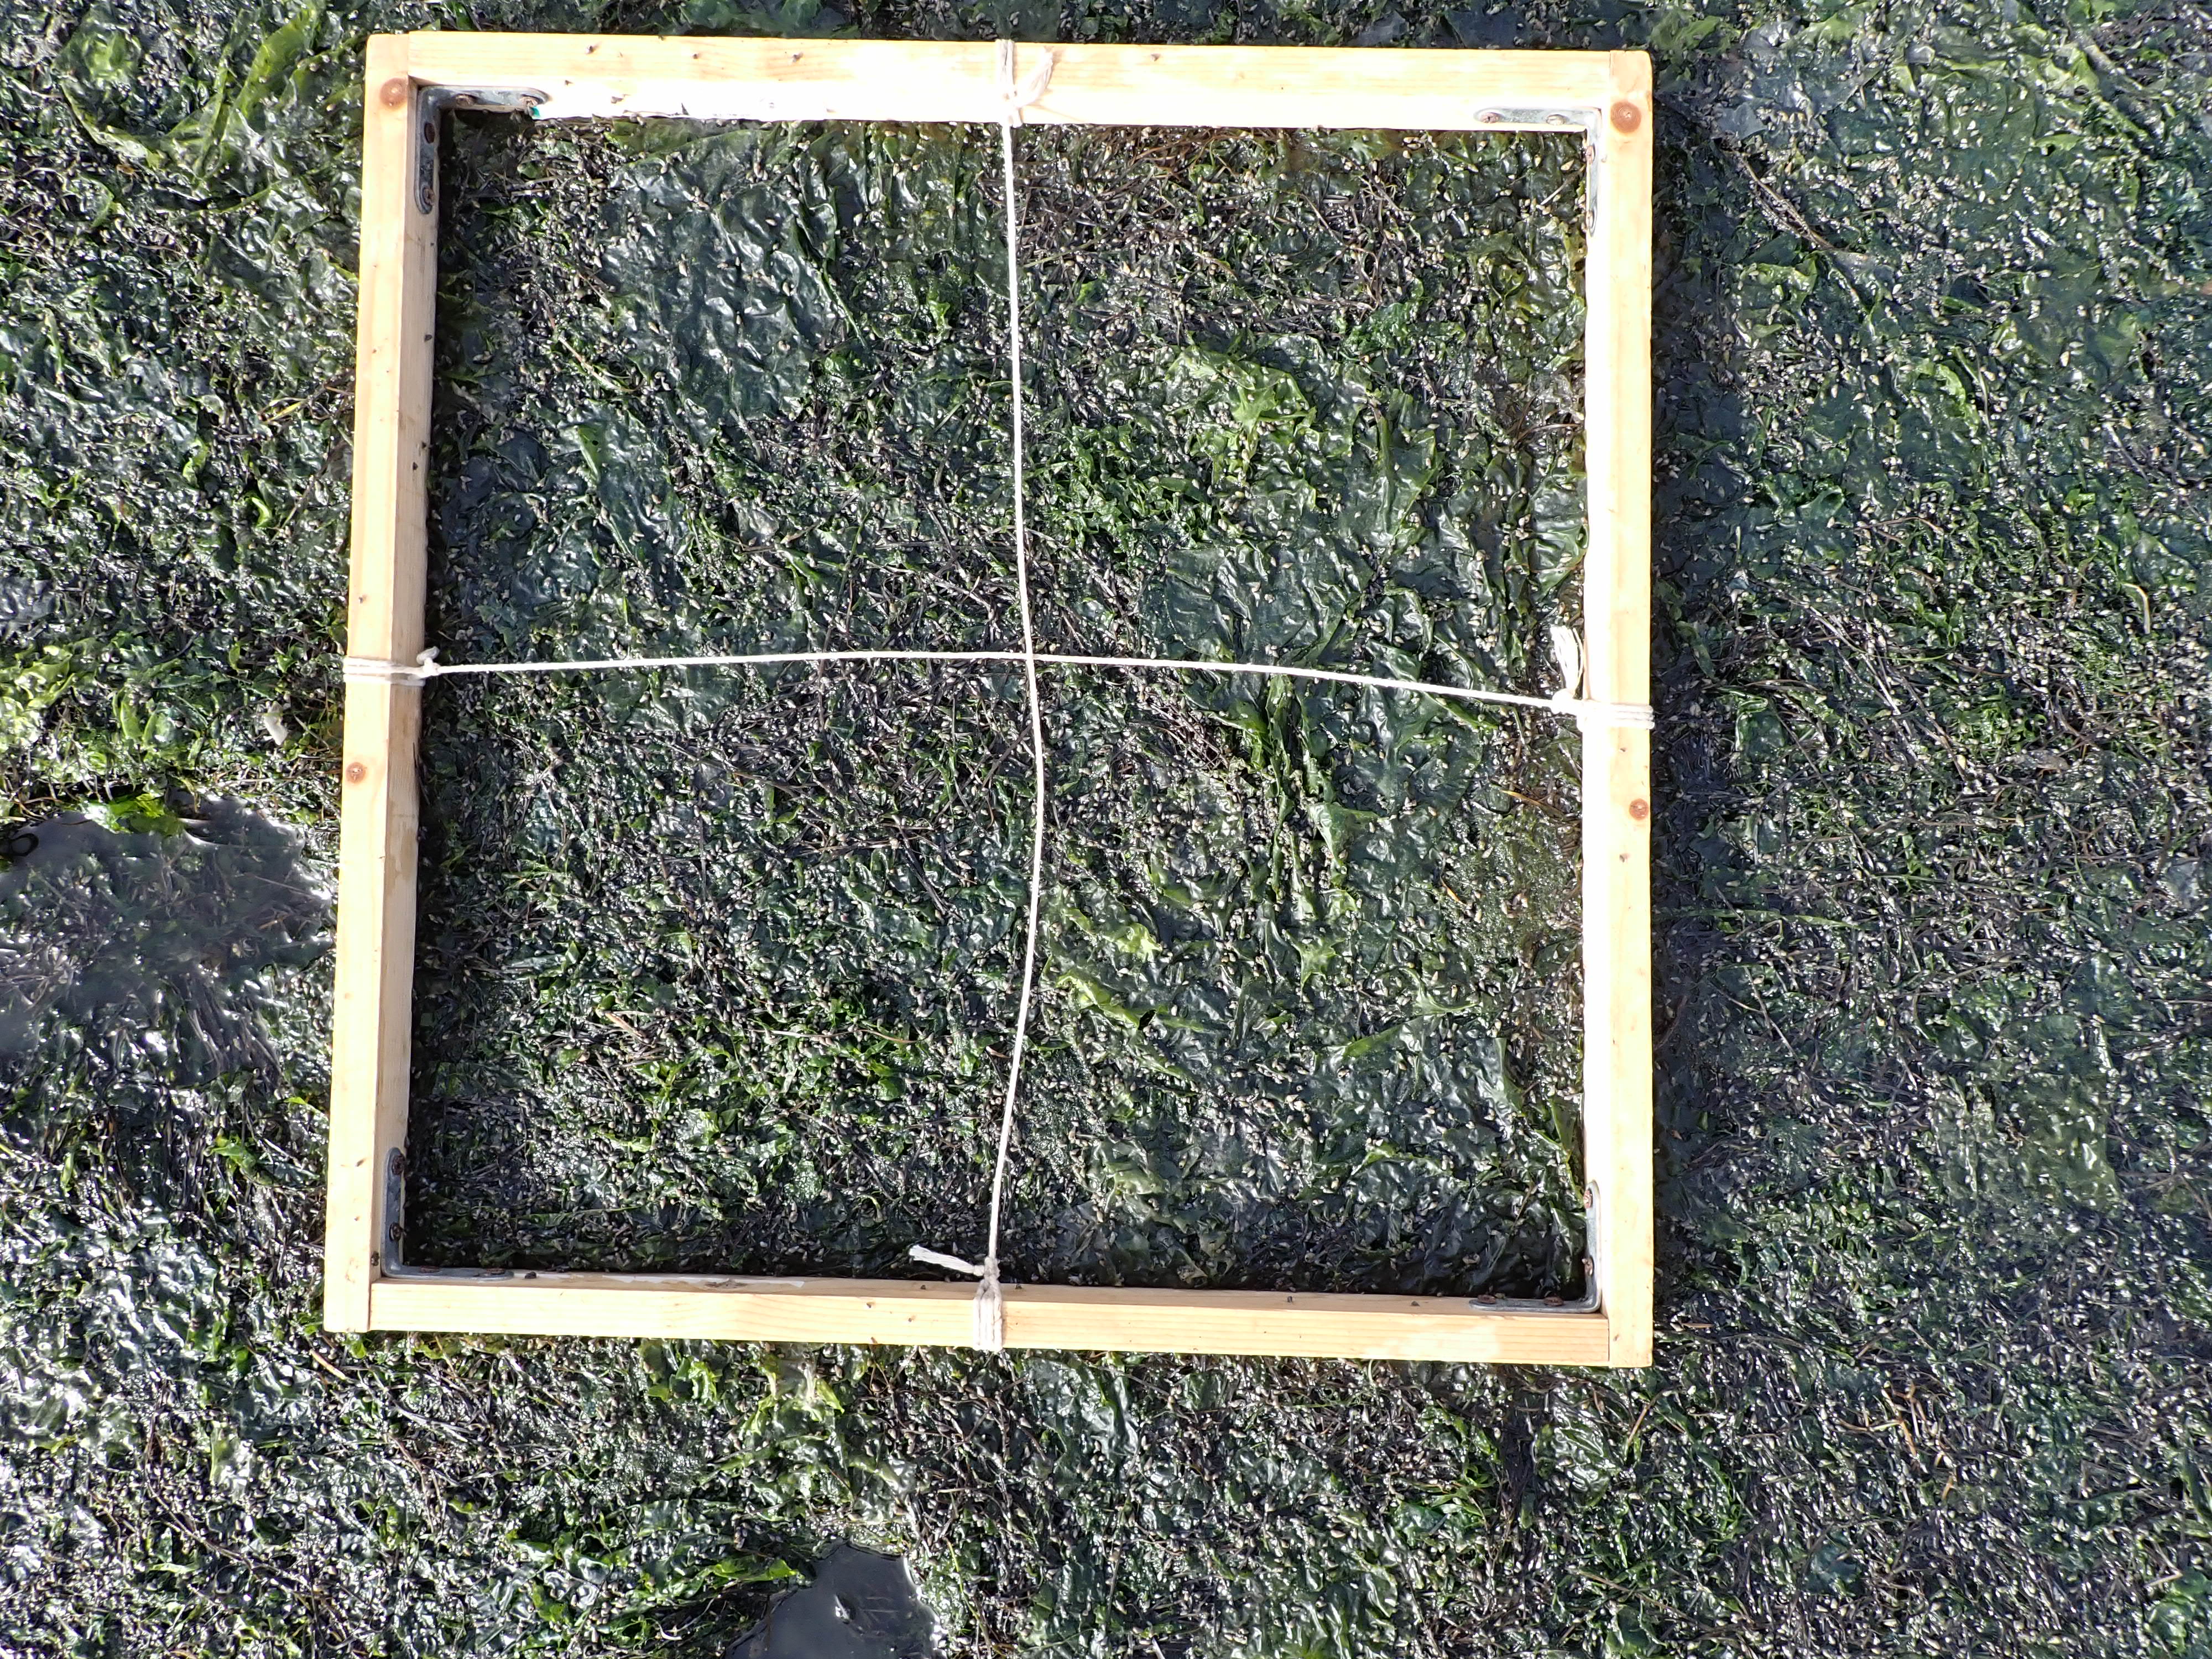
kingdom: Plantae
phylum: Tracheophyta
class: Liliopsida
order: Alismatales
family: Zosteraceae
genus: Zostera
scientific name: Zostera noltii
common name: Dwarf eelgrass
